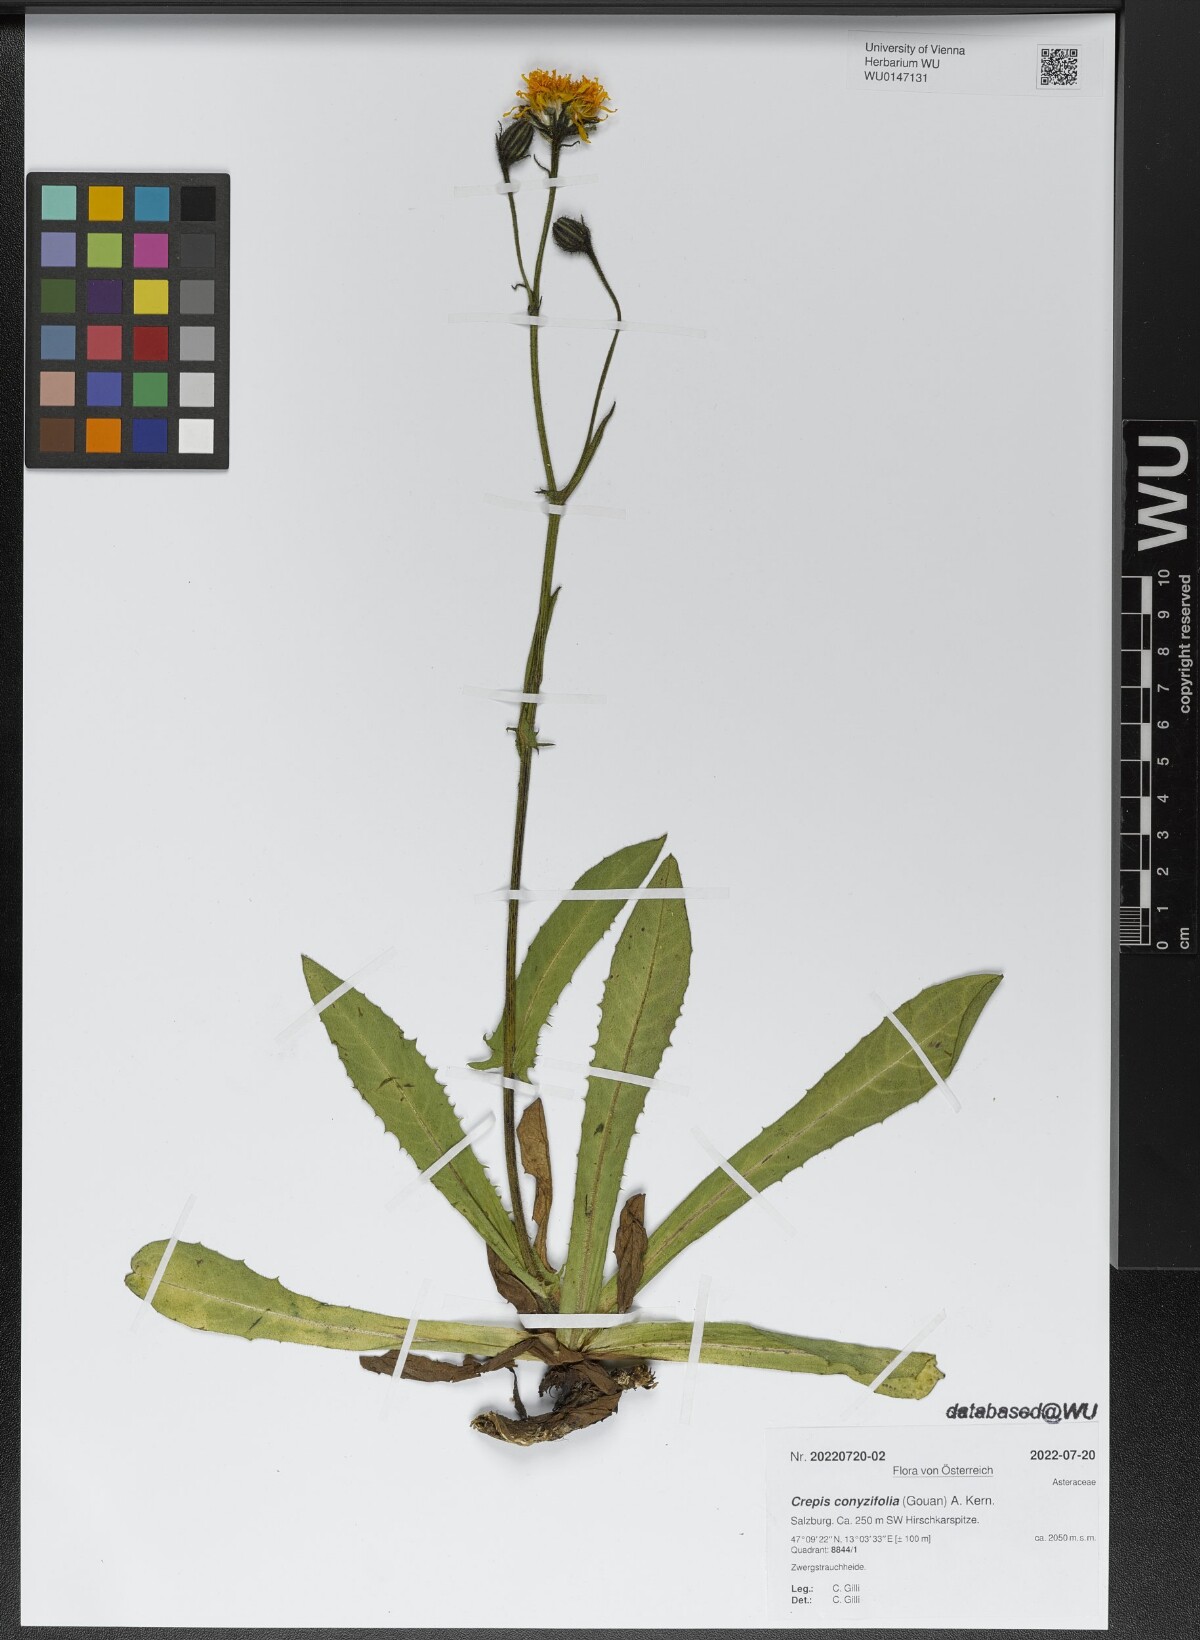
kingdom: Plantae
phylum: Tracheophyta
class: Magnoliopsida
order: Asterales
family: Asteraceae
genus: Crepis
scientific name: Crepis blattarioides
